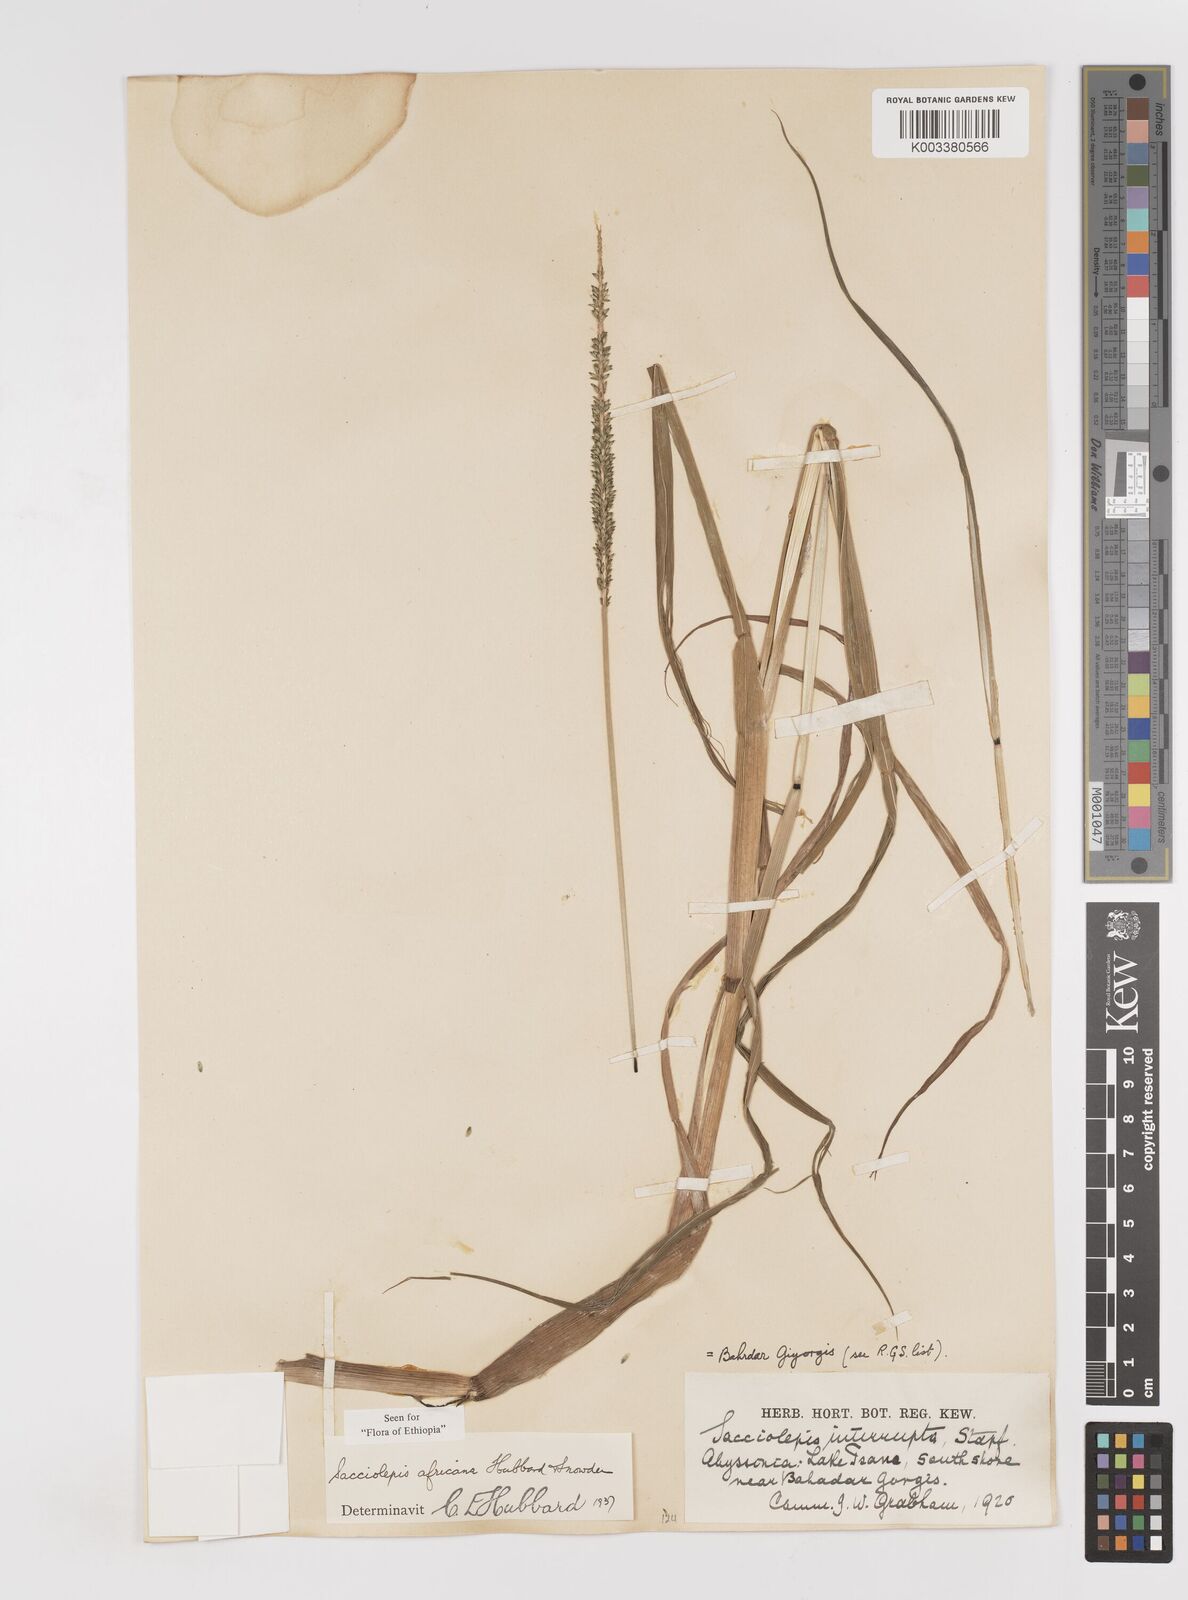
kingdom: Plantae
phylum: Tracheophyta
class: Liliopsida
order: Poales
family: Poaceae
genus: Sacciolepis
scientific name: Sacciolepis africana
